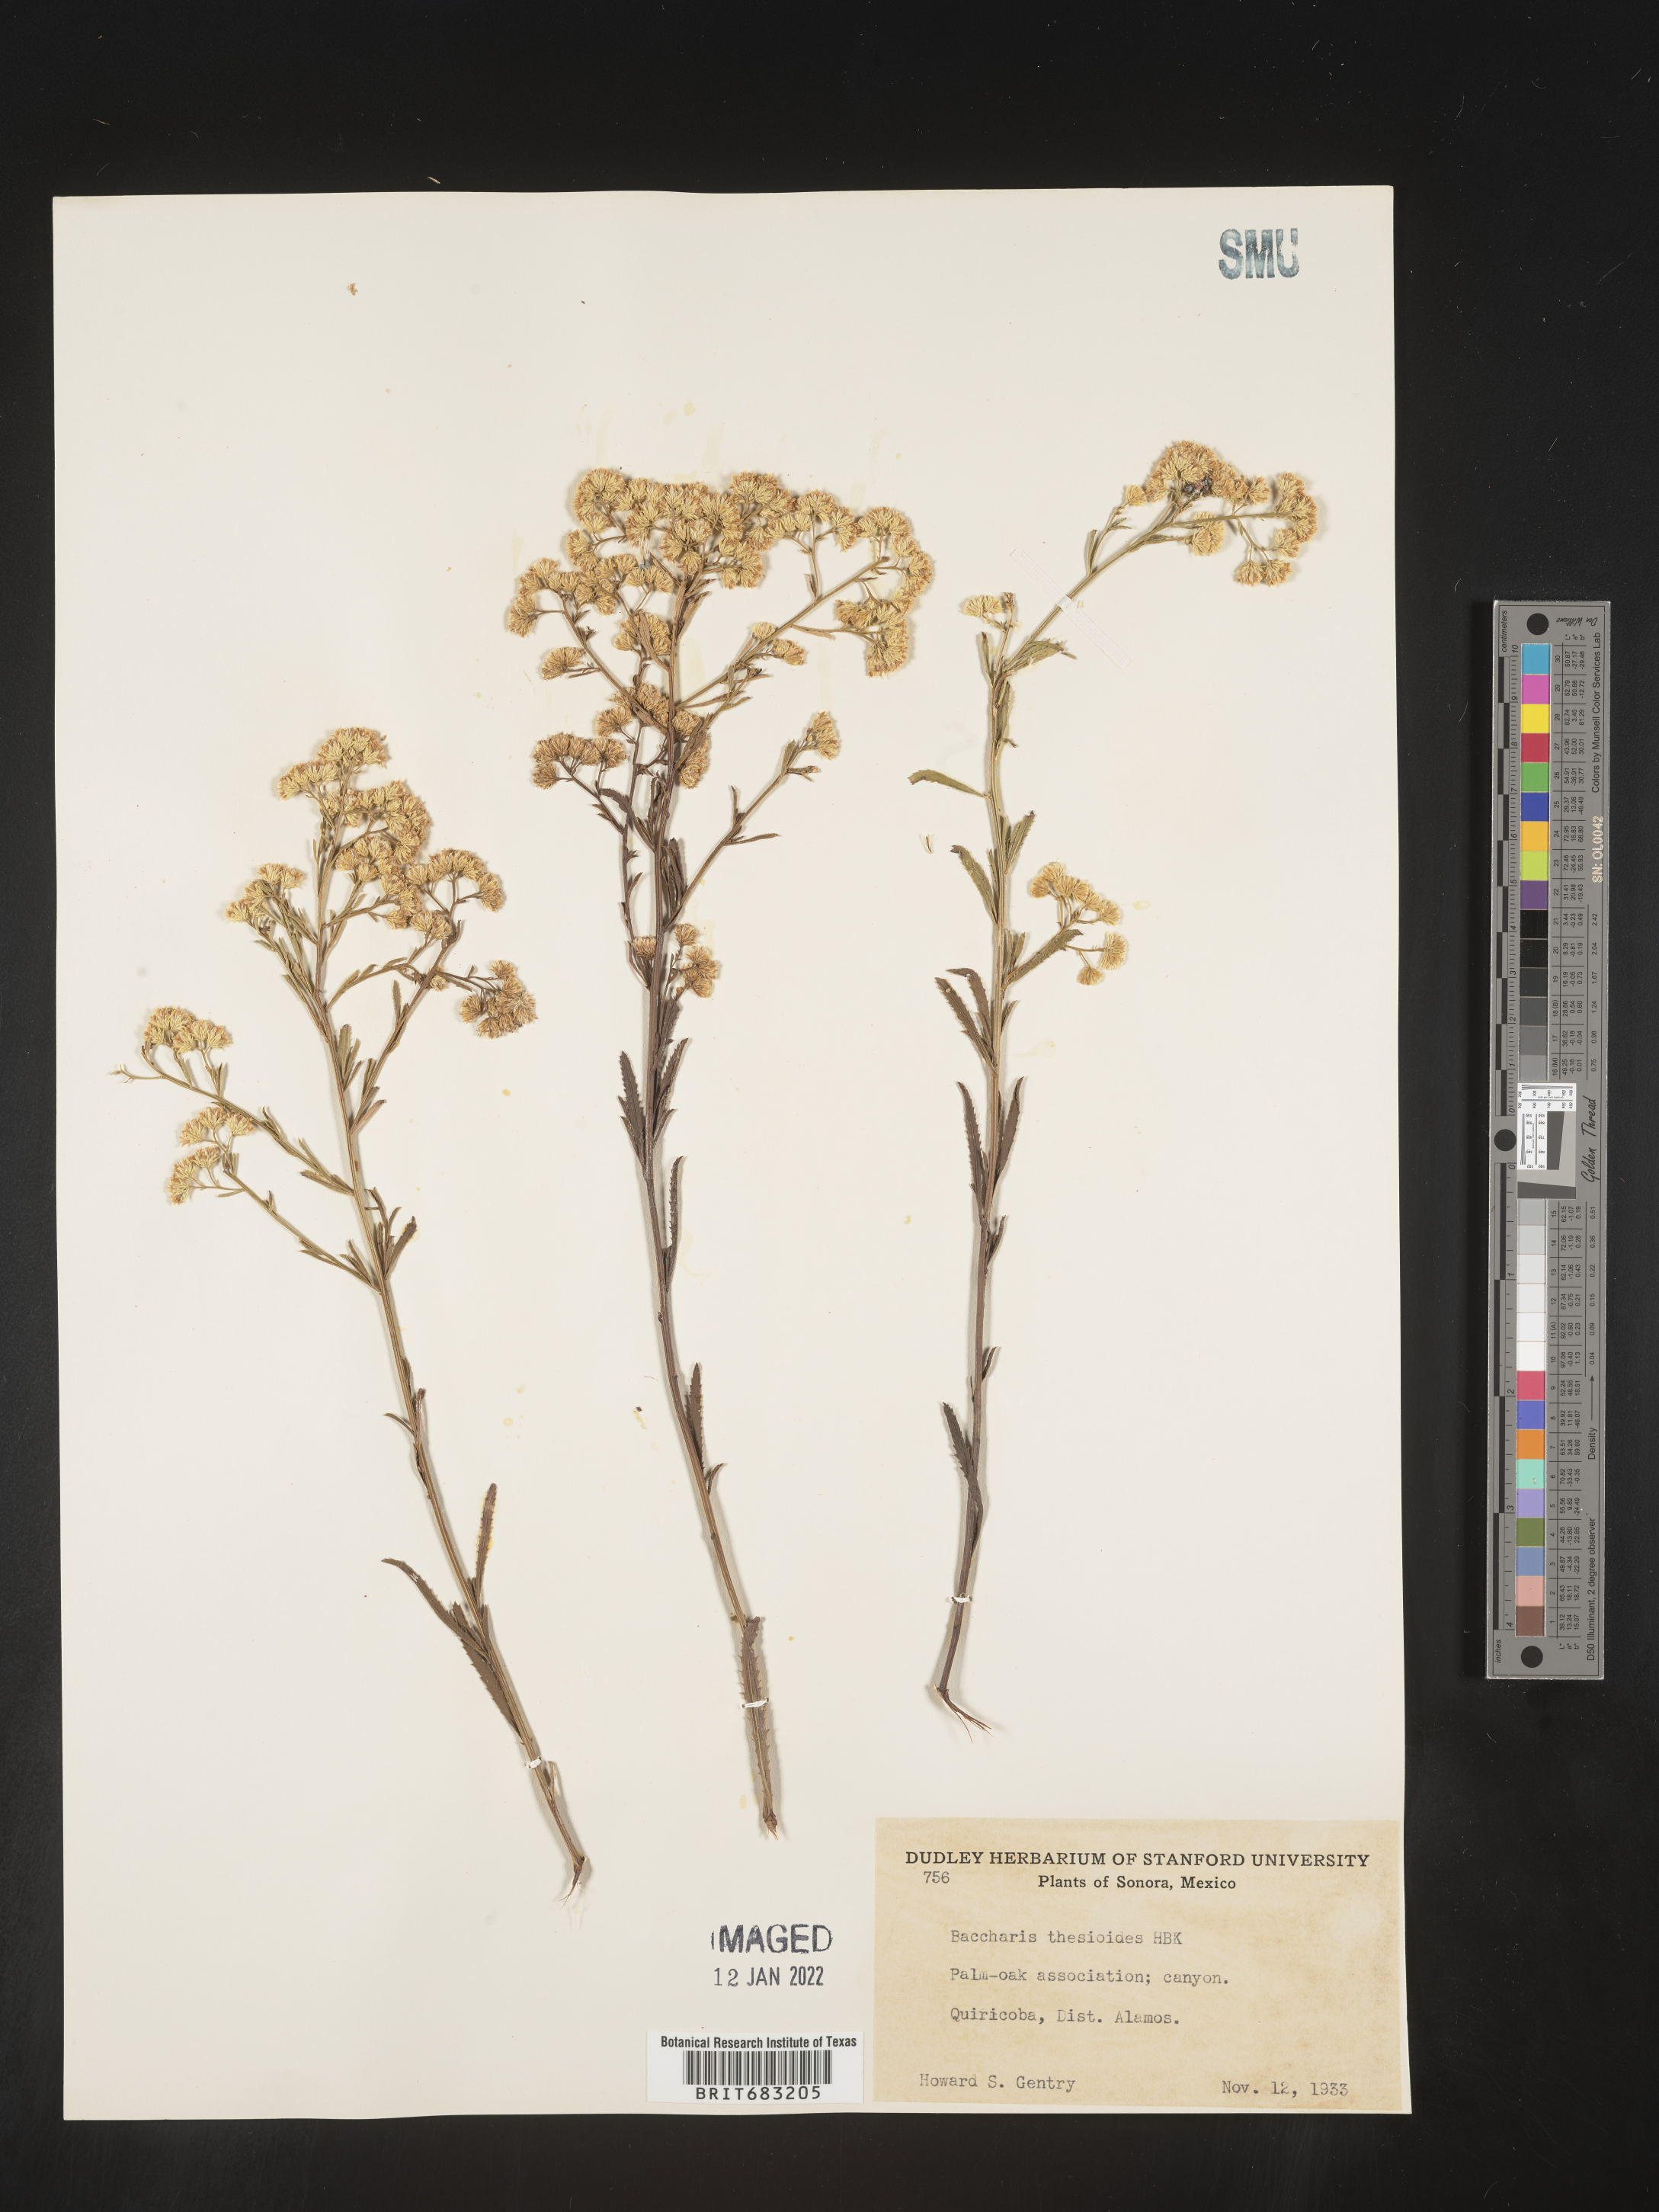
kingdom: Plantae
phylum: Tracheophyta
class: Magnoliopsida
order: Asterales
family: Asteraceae
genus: Baccharis
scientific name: Baccharis thesioides
